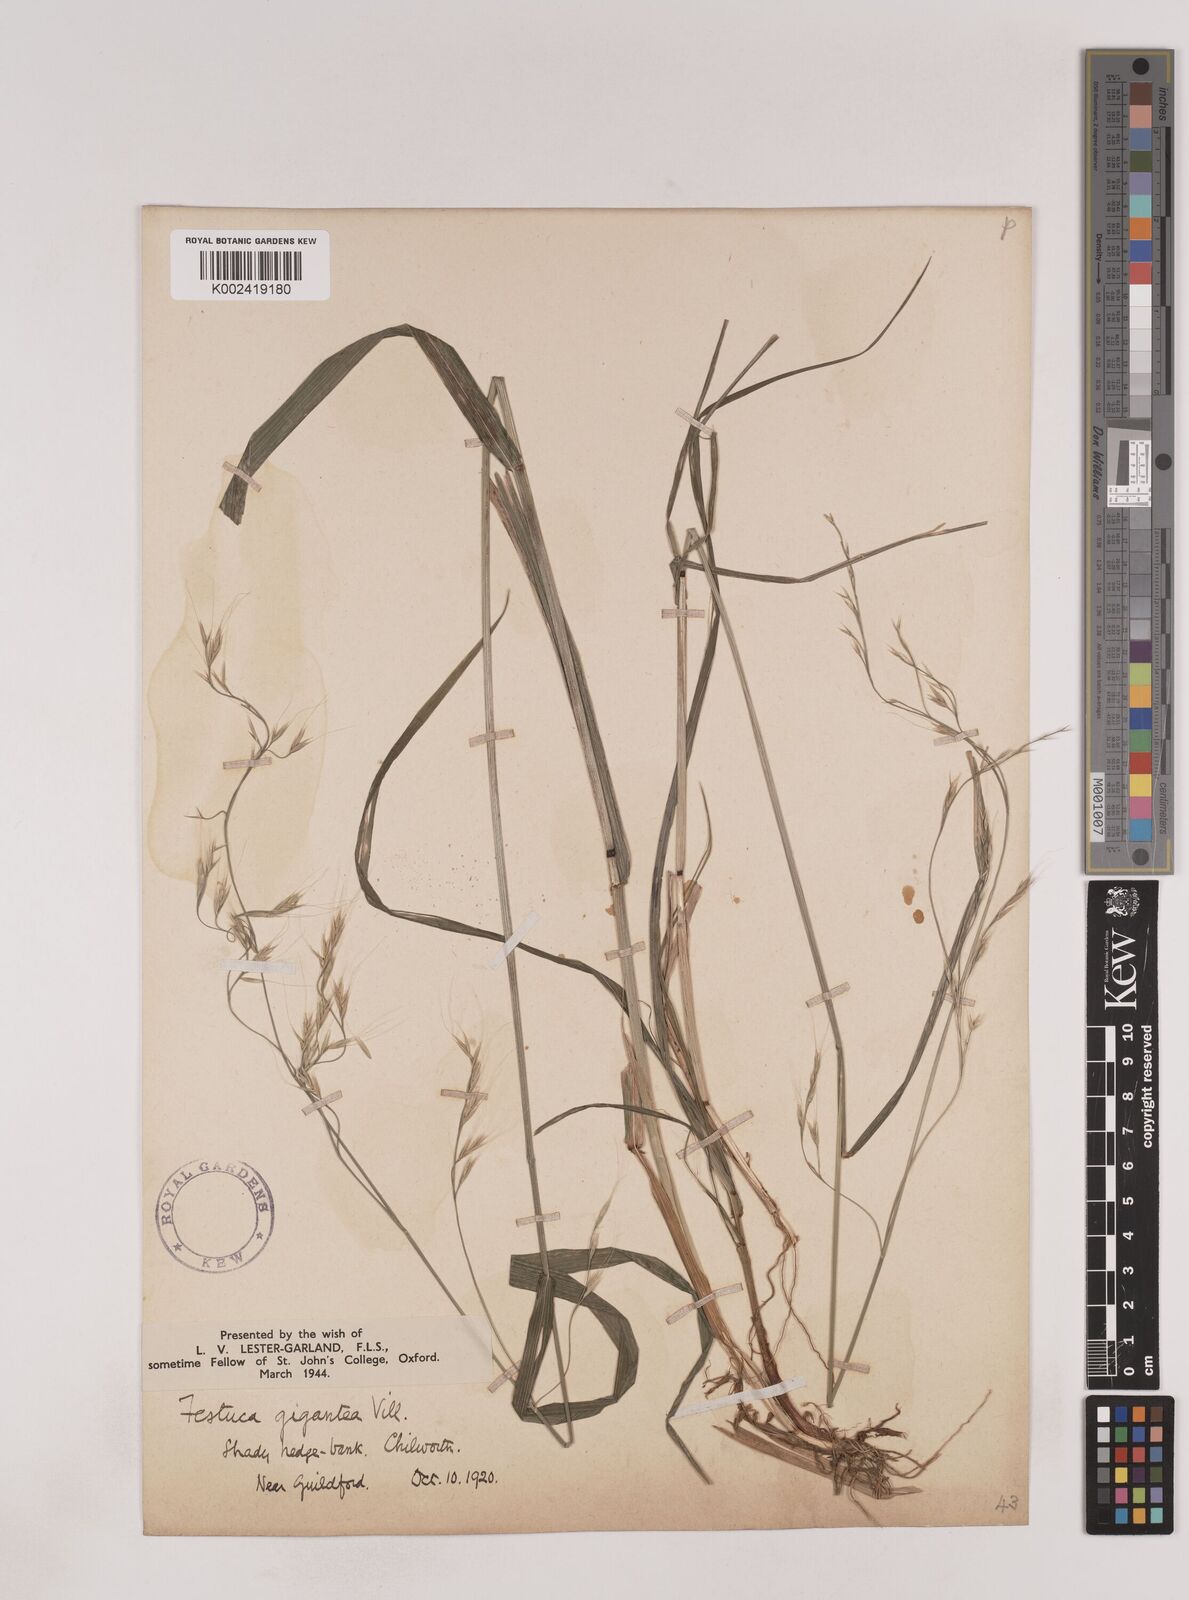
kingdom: Plantae
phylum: Tracheophyta
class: Liliopsida
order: Poales
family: Poaceae
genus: Lolium
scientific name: Lolium giganteum
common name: Giant fescue
